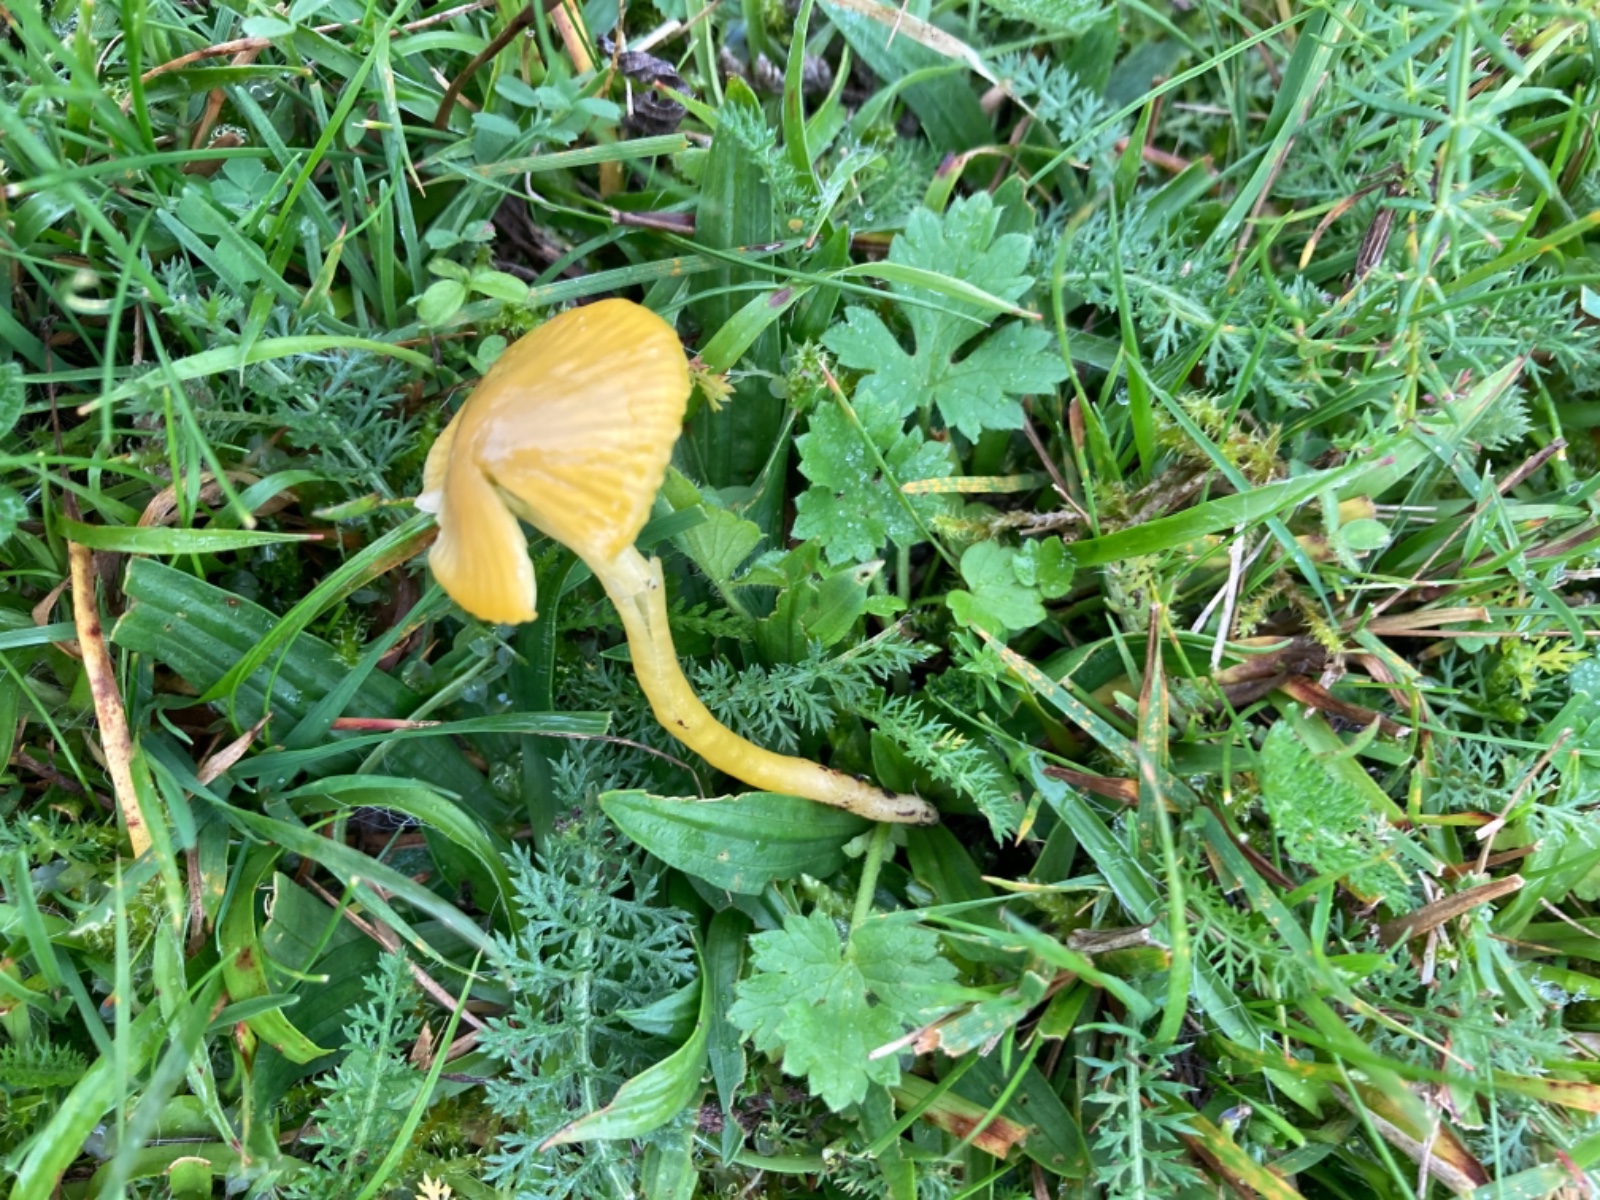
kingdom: Fungi
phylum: Basidiomycota
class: Agaricomycetes
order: Agaricales
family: Hygrophoraceae
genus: Gliophorus
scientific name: Gliophorus psittacinus
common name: papegøje-vokshat
